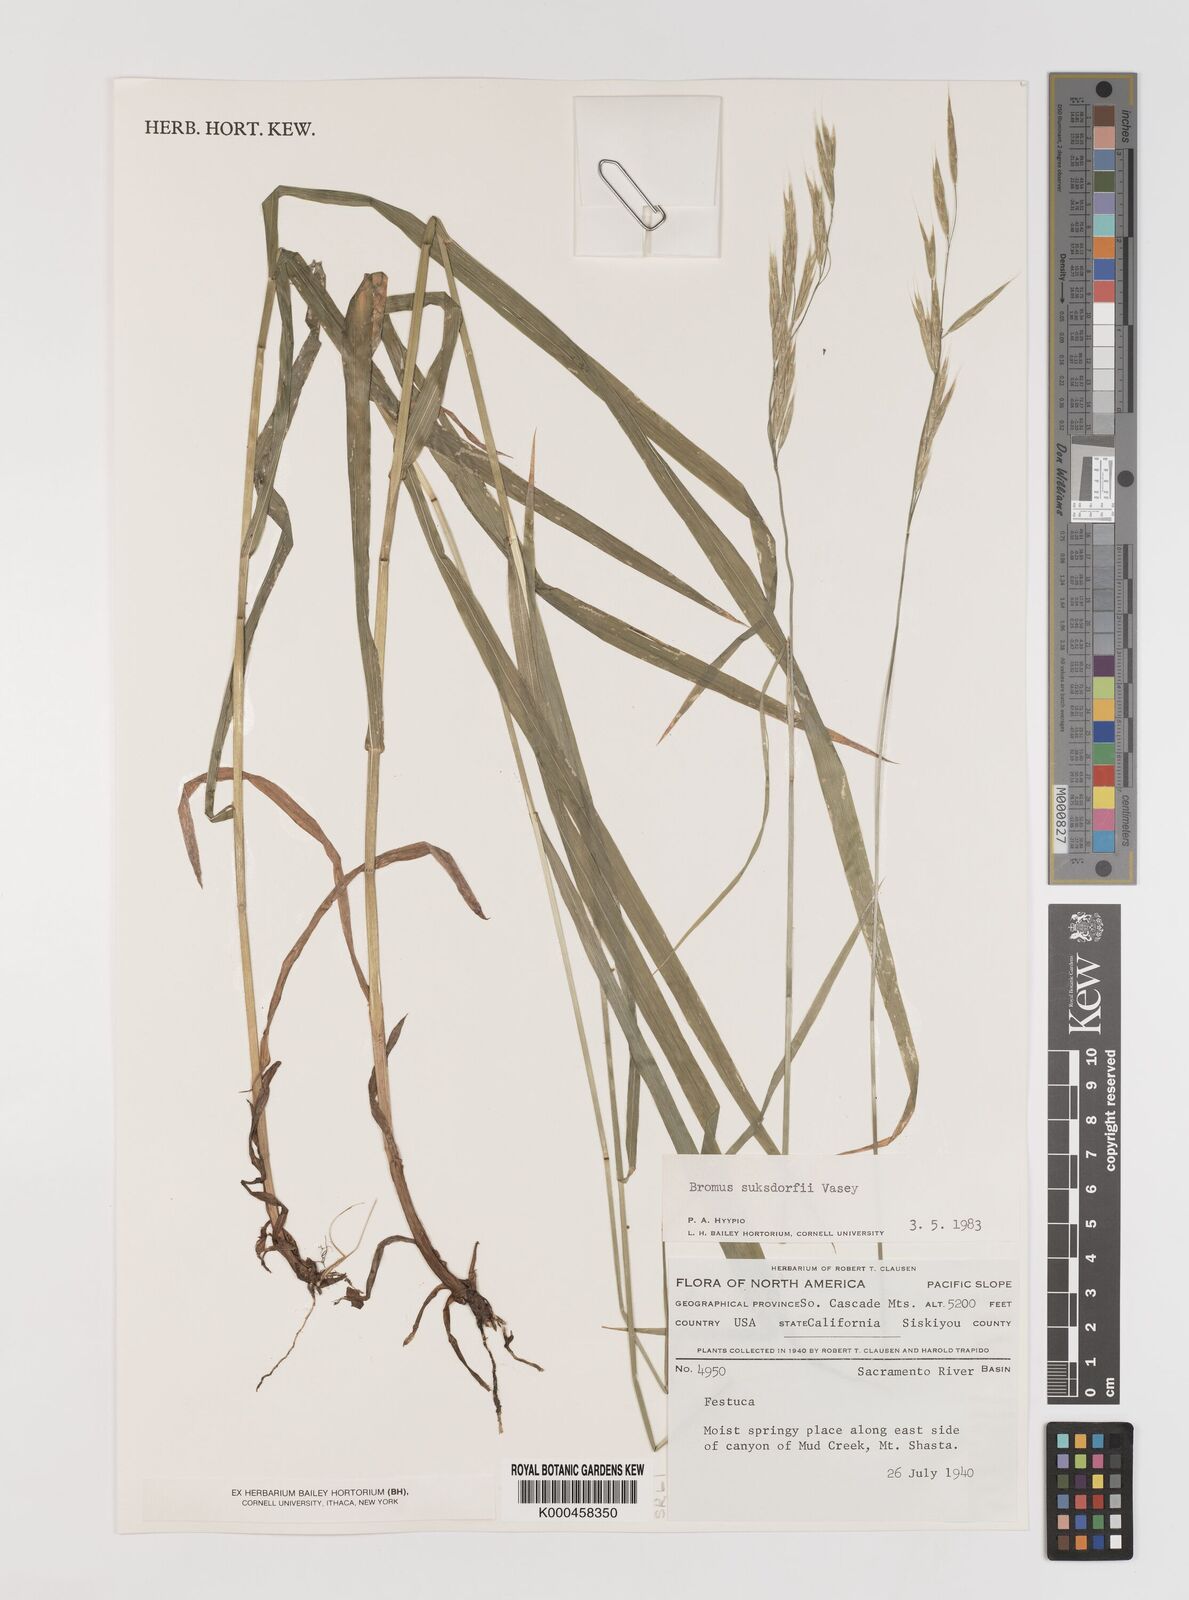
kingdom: Plantae
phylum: Tracheophyta
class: Liliopsida
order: Poales
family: Poaceae
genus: Bromus
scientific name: Bromus suksdorfii
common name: Suksdorf's brome
